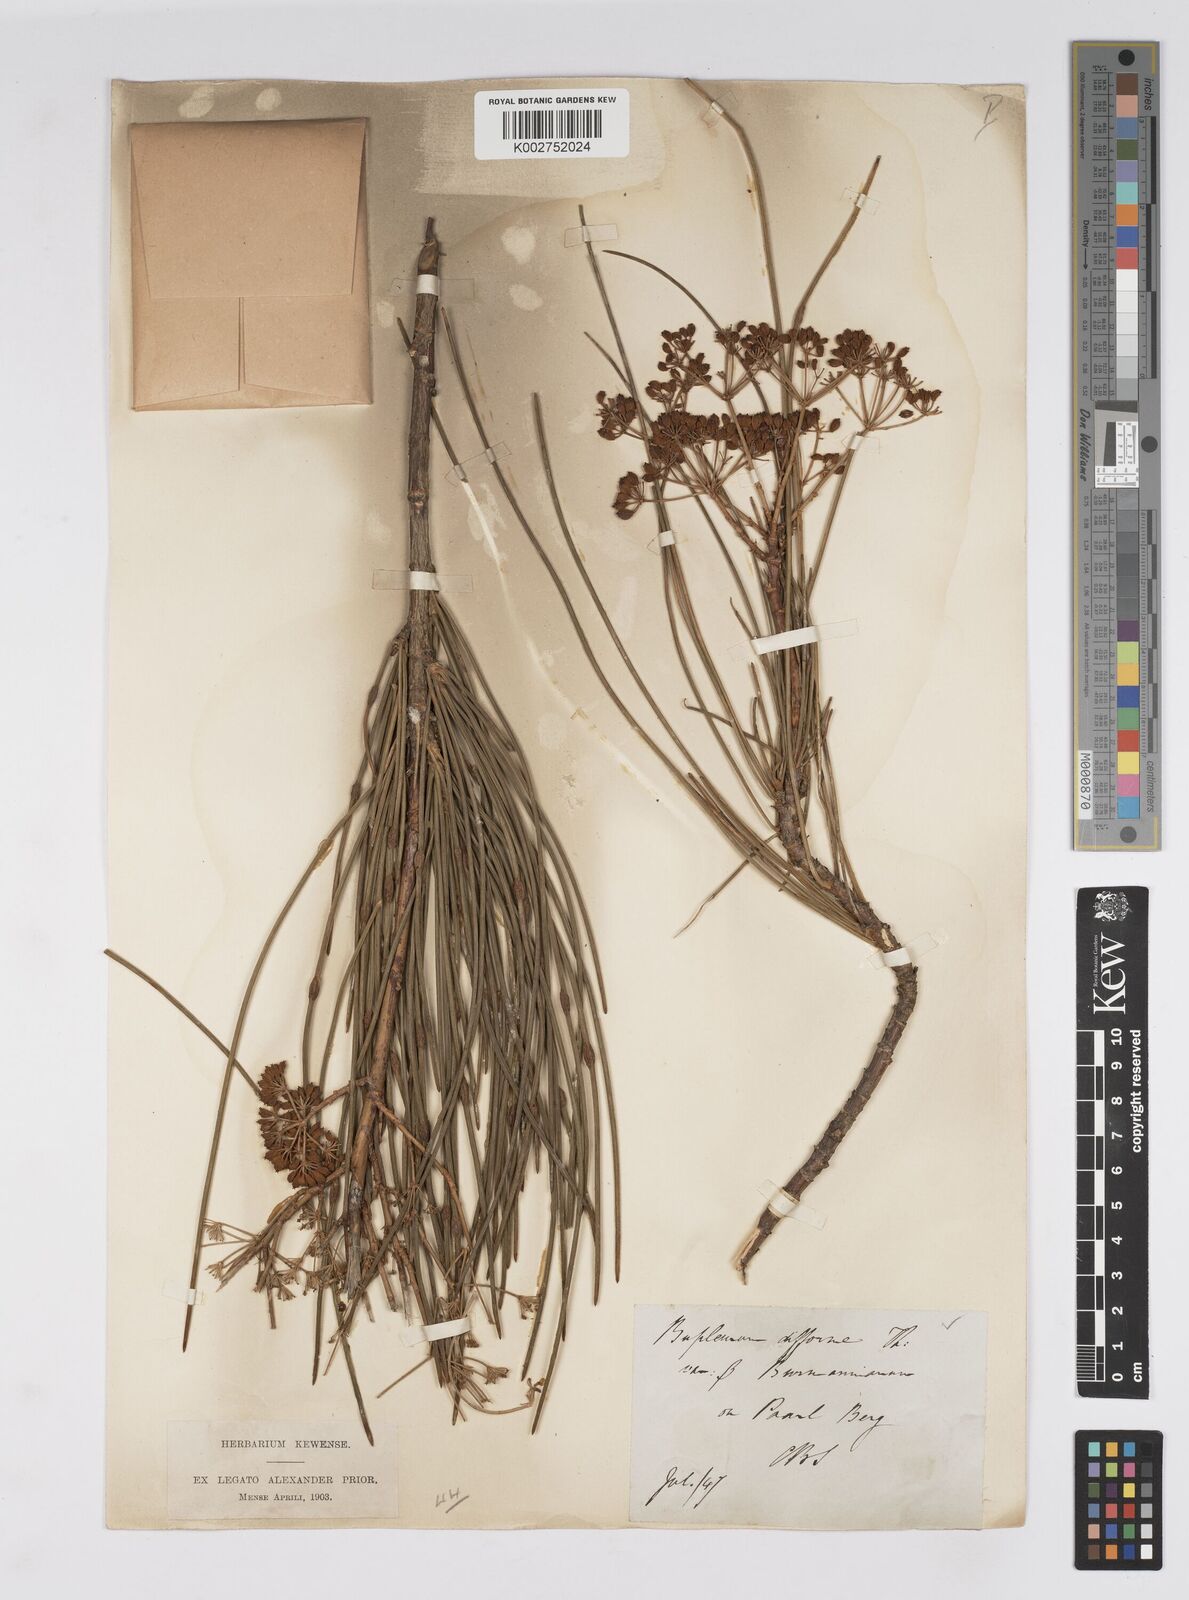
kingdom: Plantae
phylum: Tracheophyta
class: Magnoliopsida
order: Apiales
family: Apiaceae
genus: Anginon
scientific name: Anginon difforme
